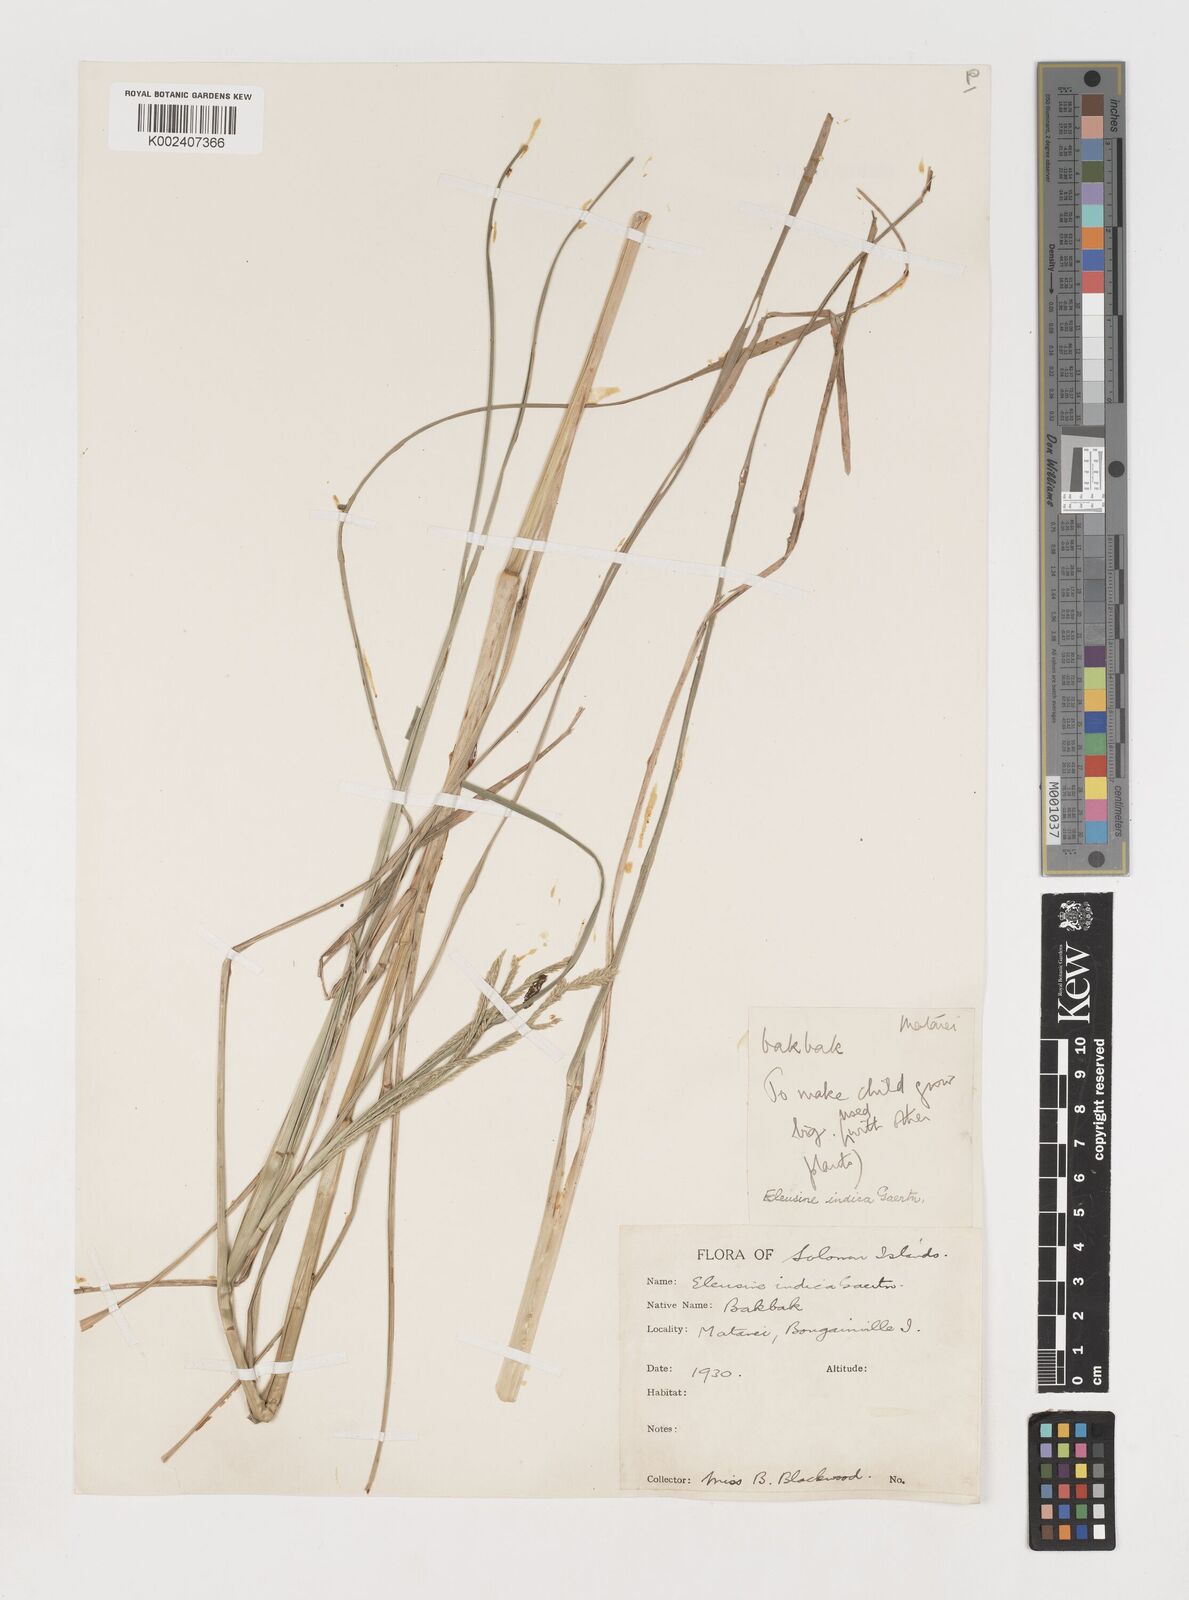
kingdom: Plantae
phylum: Tracheophyta
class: Liliopsida
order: Poales
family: Poaceae
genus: Eleusine
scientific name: Eleusine indica
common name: Yard-grass
